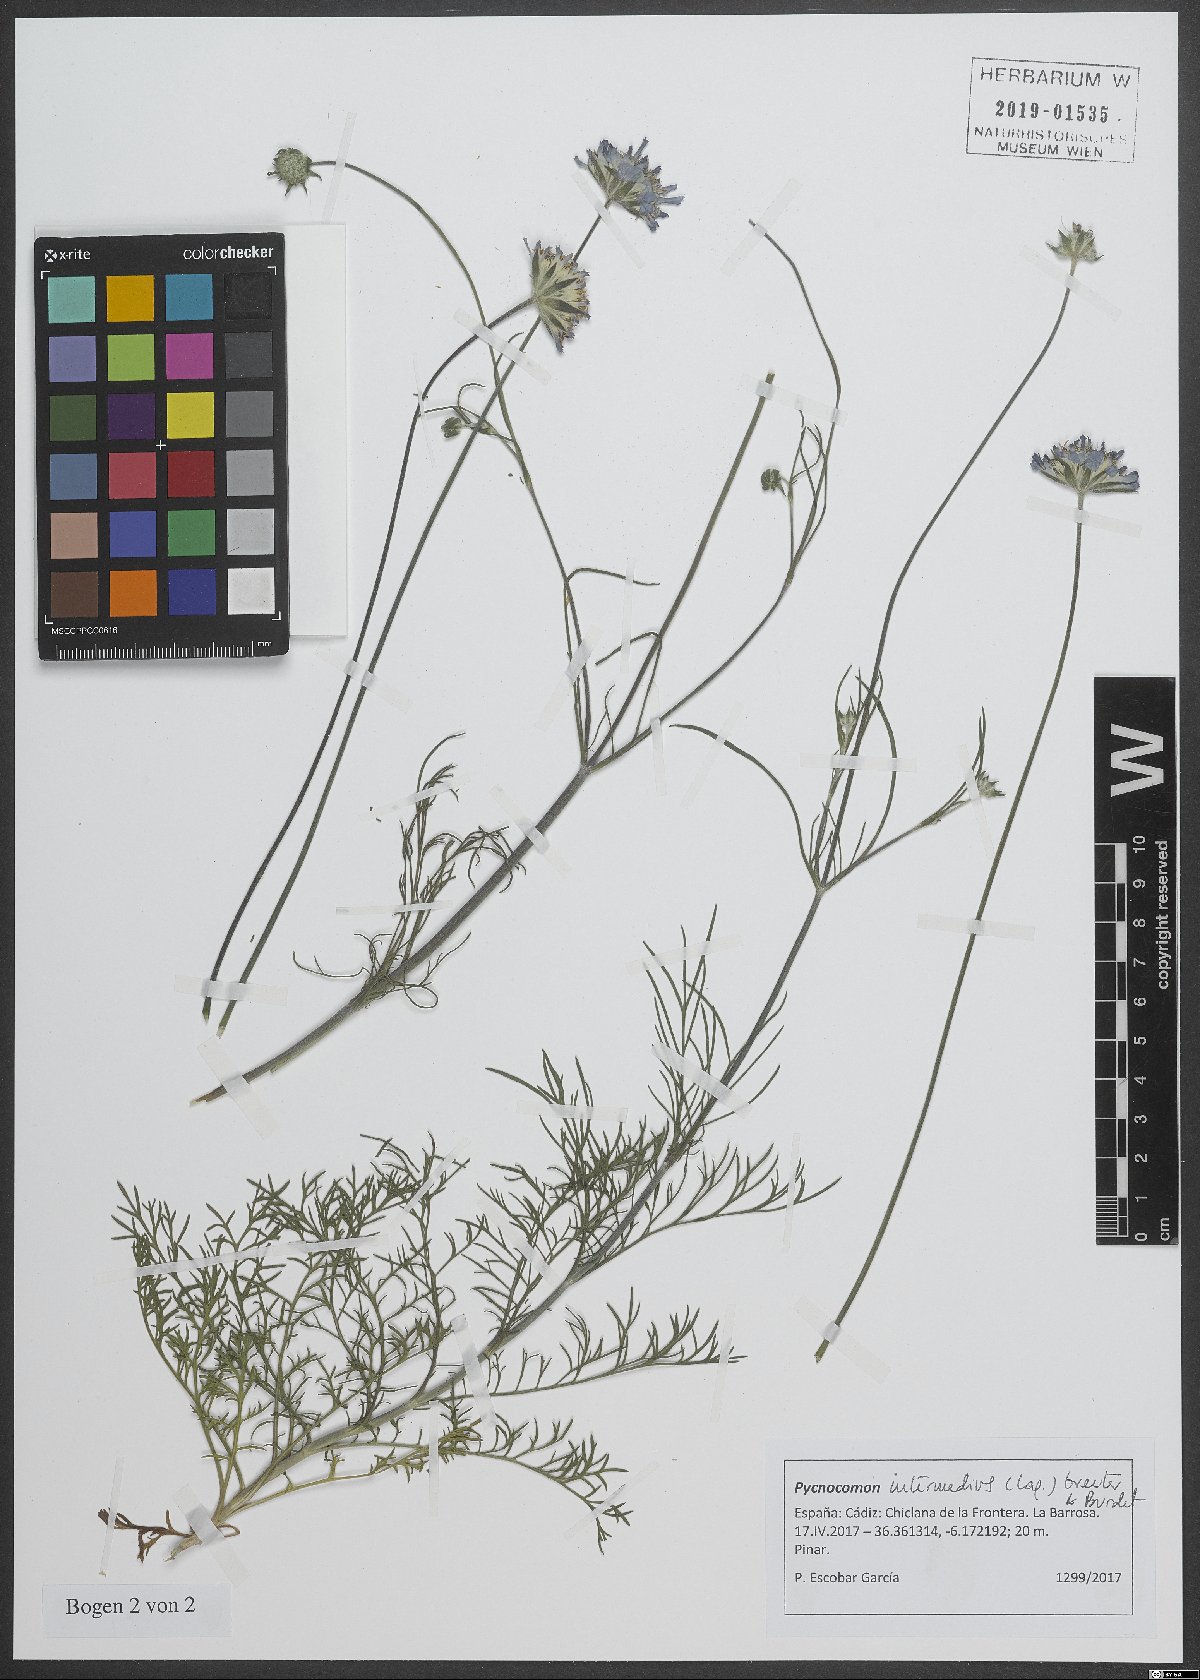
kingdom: Plantae
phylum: Tracheophyta
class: Magnoliopsida
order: Dipsacales
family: Caprifoliaceae
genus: Pycnocomon
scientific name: Pycnocomon intermedium
